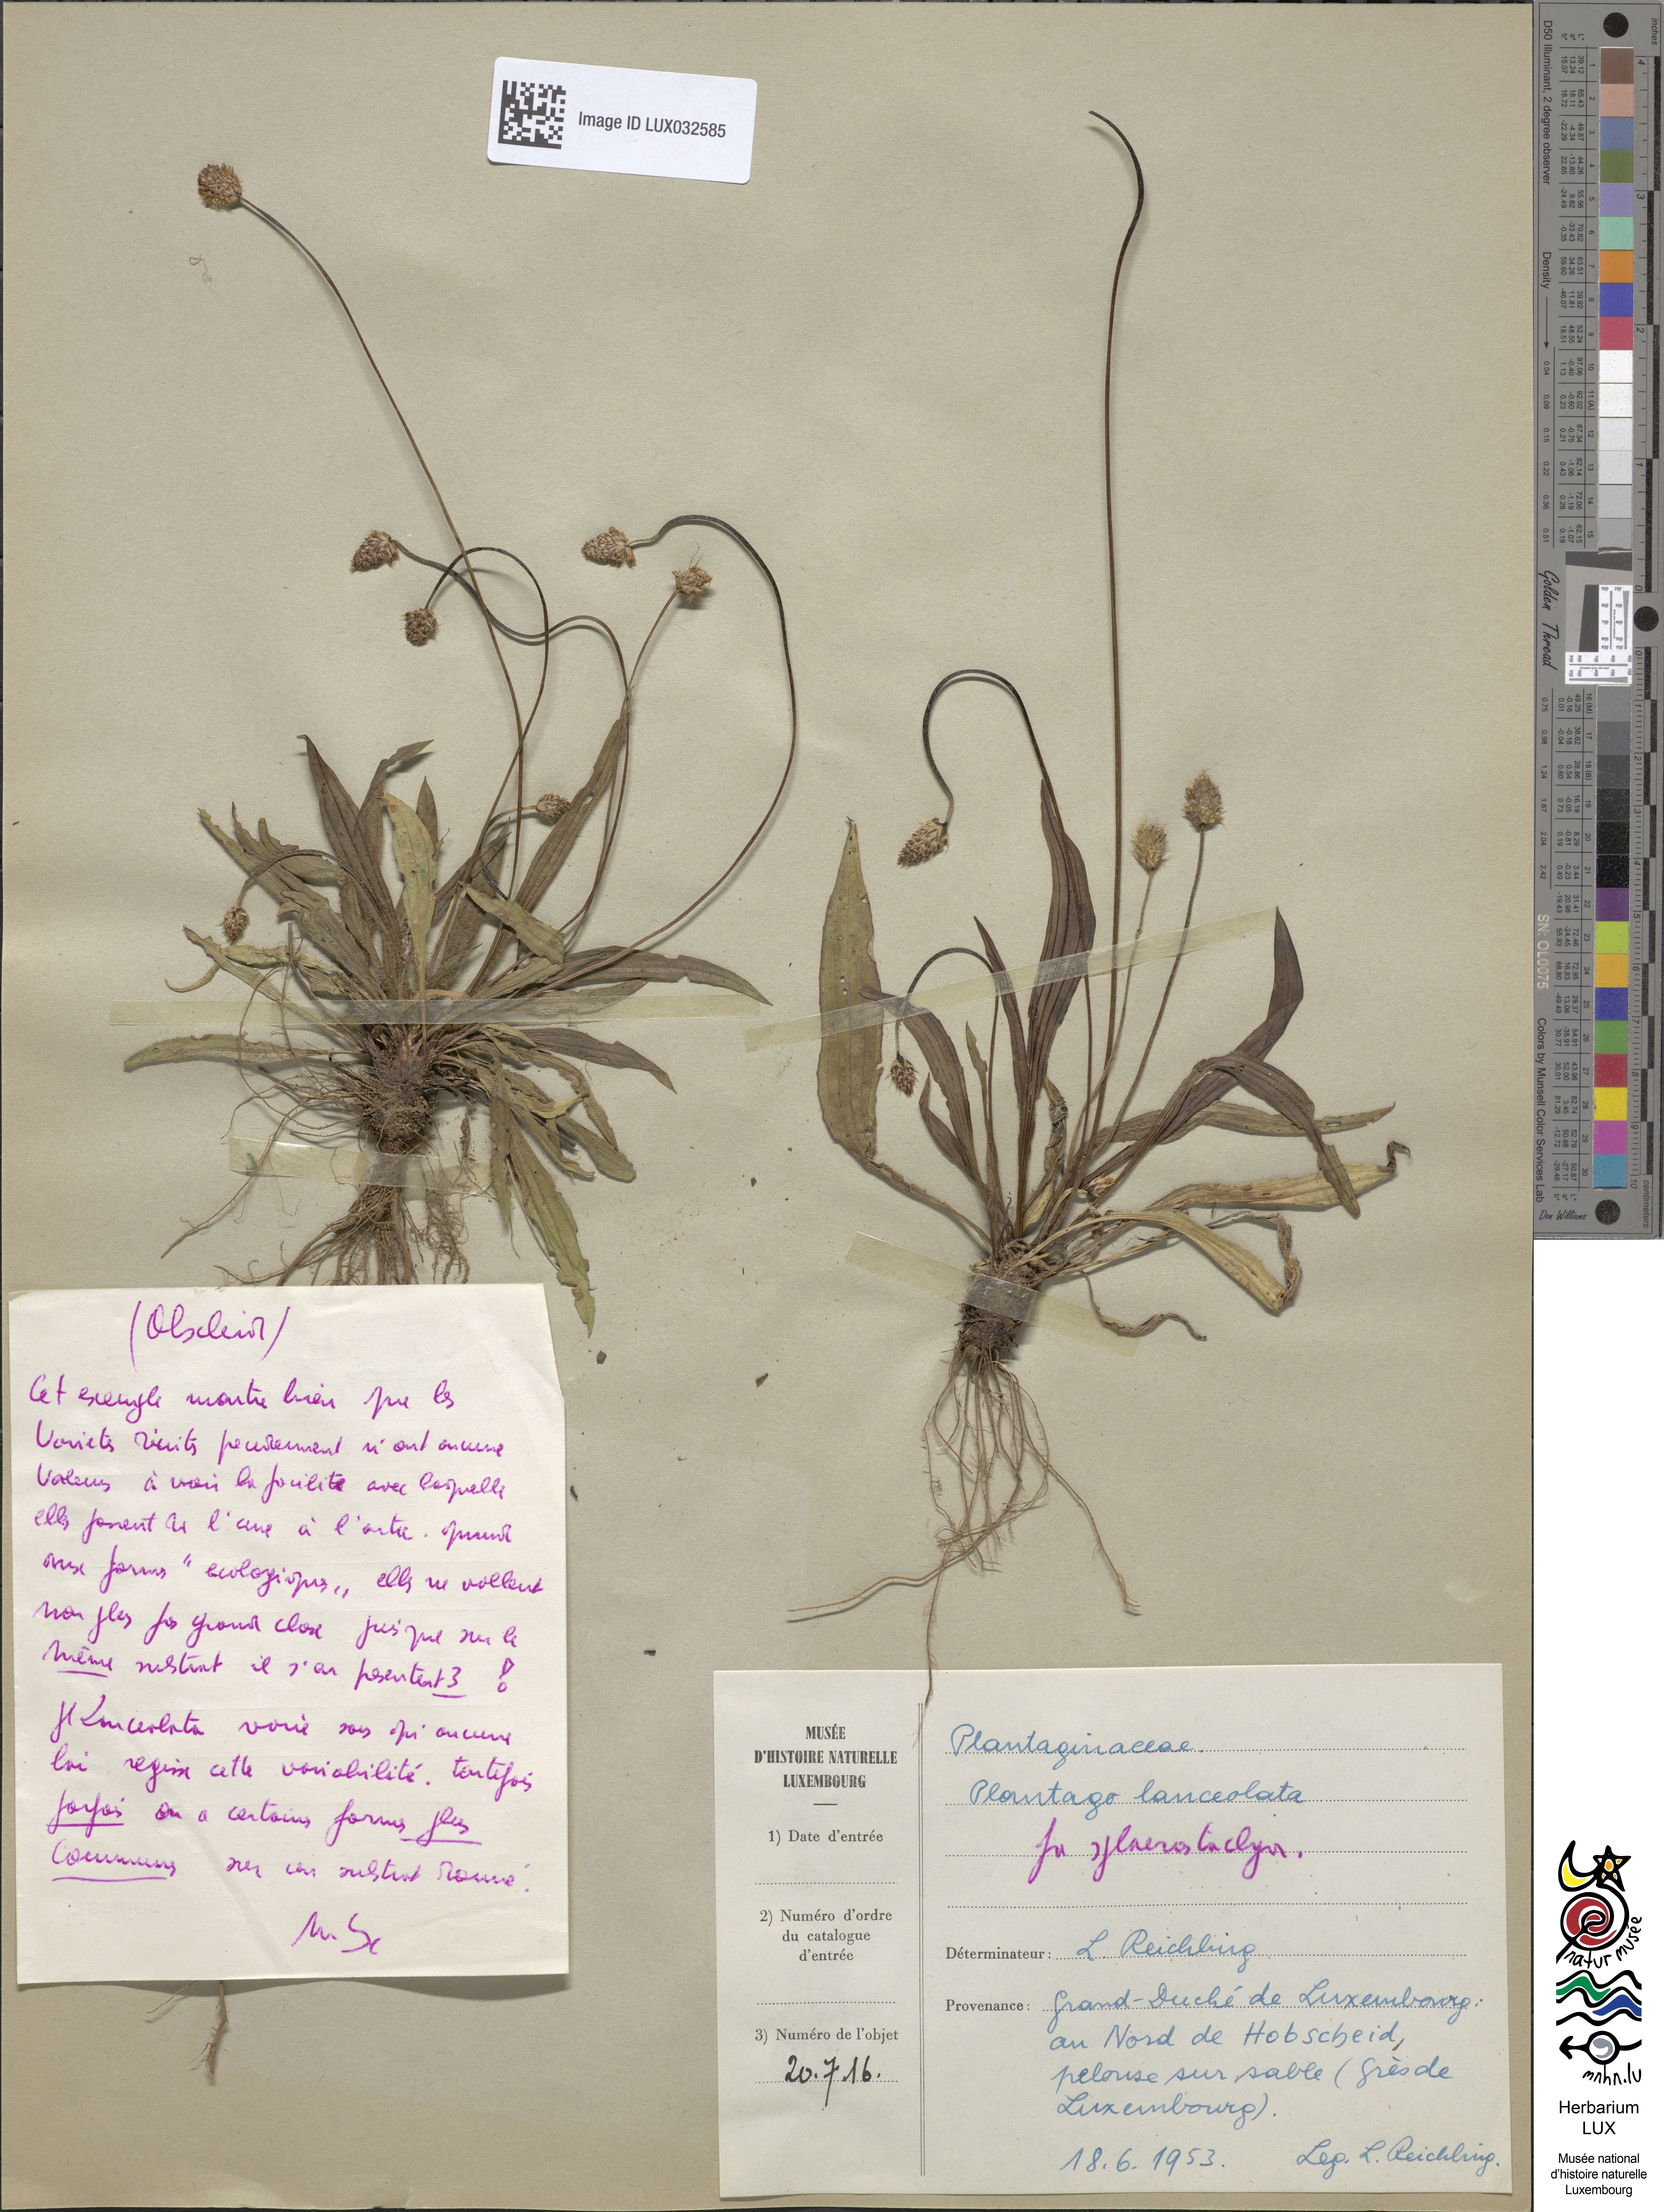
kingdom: Plantae
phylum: Tracheophyta
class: Magnoliopsida
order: Lamiales
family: Plantaginaceae
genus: Plantago
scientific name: Plantago lanceolata
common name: Ribwort plantain
